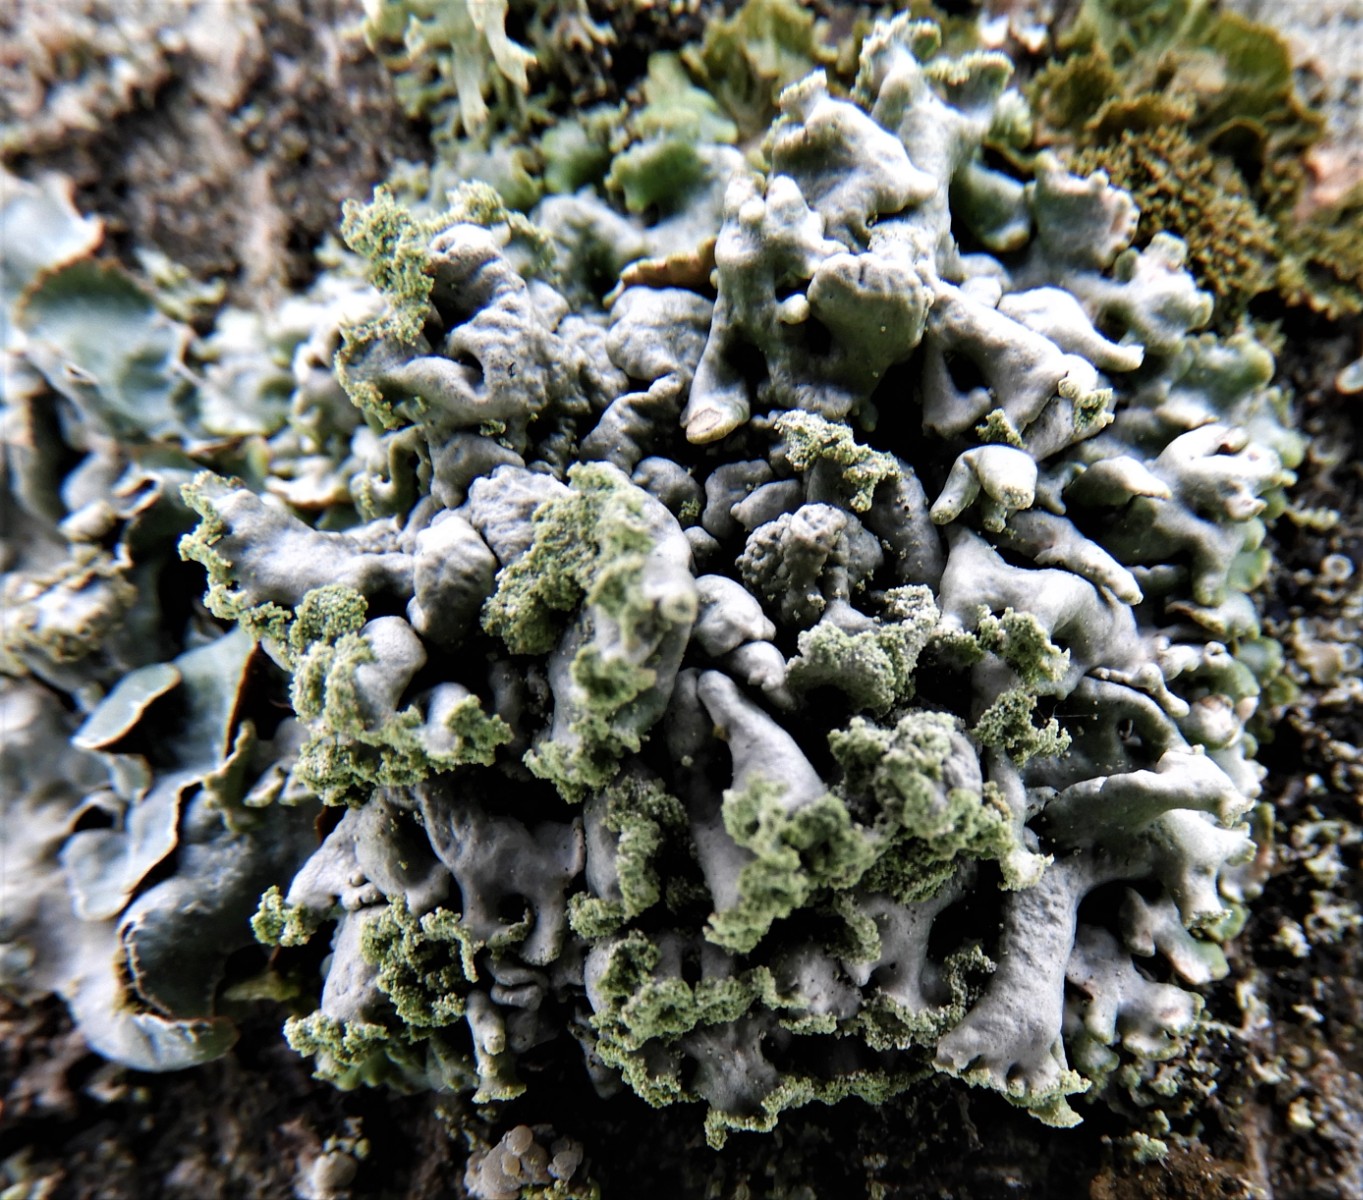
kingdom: Fungi
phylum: Ascomycota
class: Lecanoromycetes
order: Lecanorales
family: Parmeliaceae
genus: Hypogymnia
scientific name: Hypogymnia physodes
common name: almindelig kvistlav
